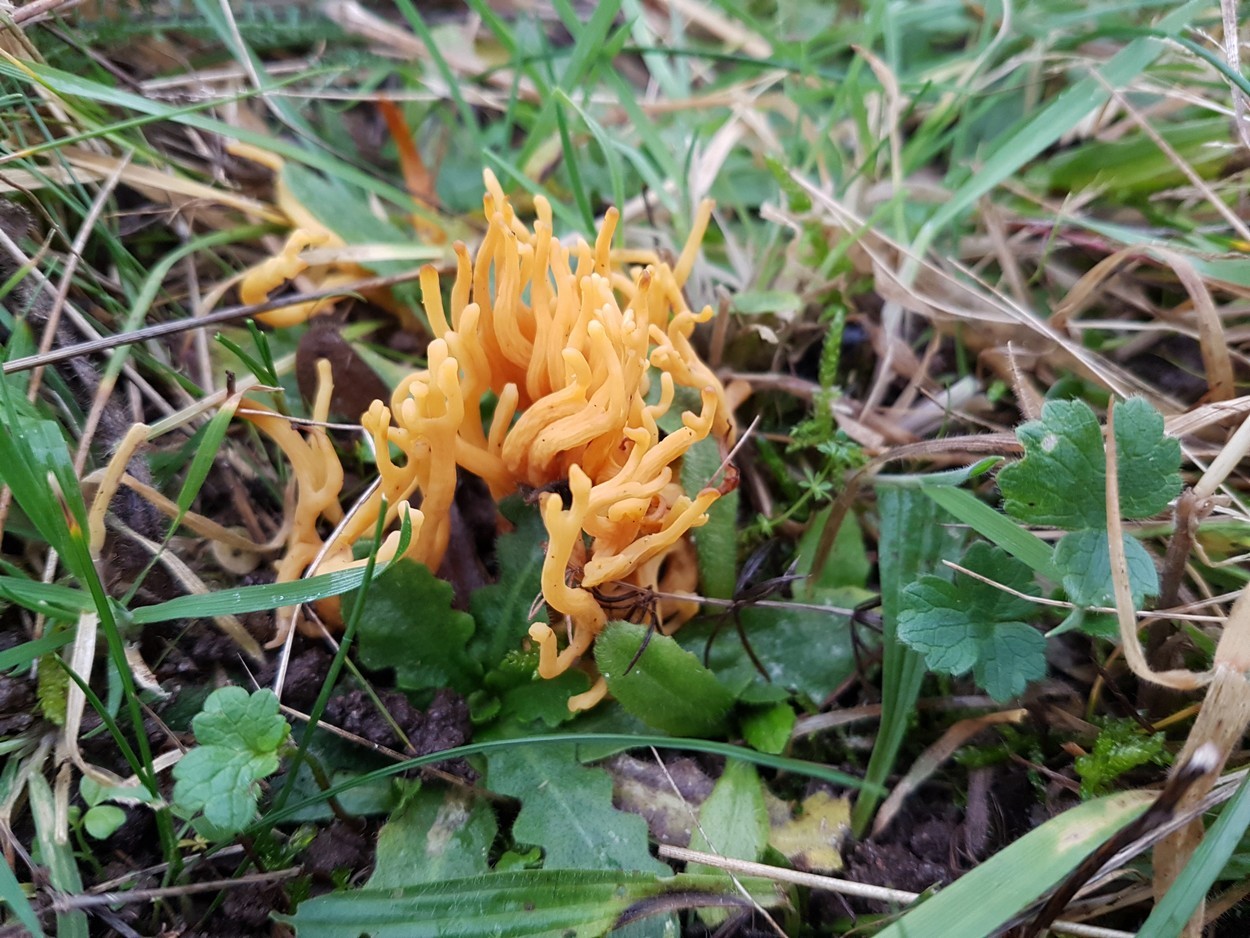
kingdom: Fungi
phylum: Basidiomycota
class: Agaricomycetes
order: Agaricales
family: Clavariaceae
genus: Clavulinopsis
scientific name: Clavulinopsis corniculata
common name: eng-køllesvamp
